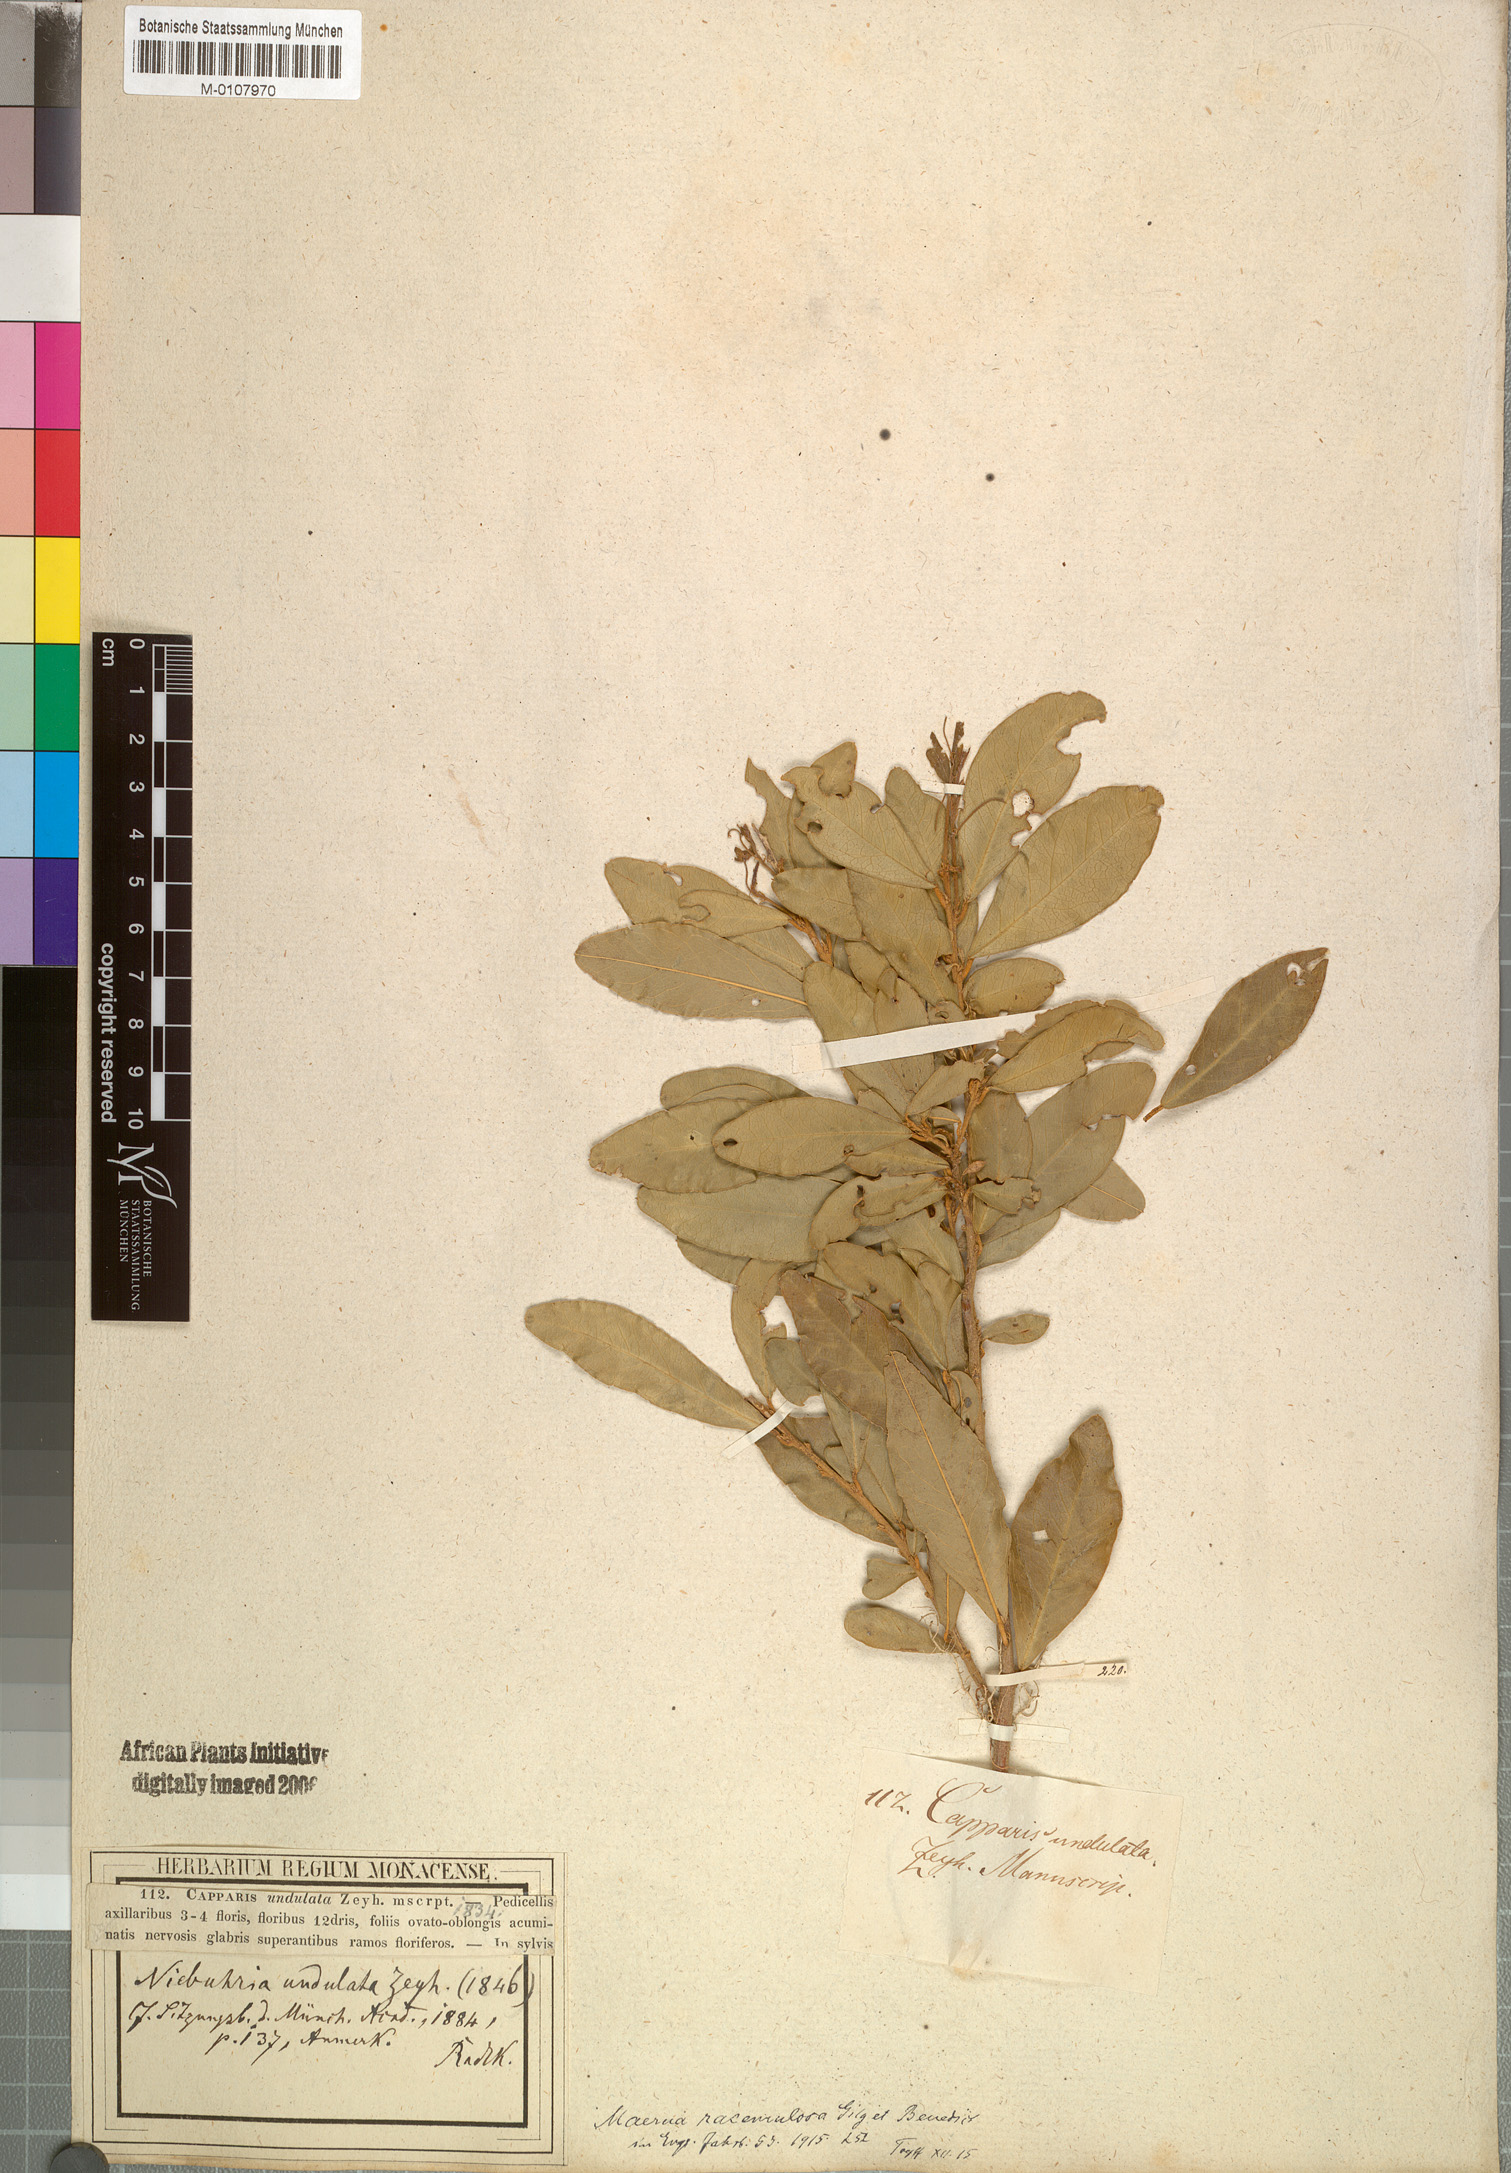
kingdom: Plantae
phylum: Tracheophyta
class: Magnoliopsida
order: Brassicales
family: Capparaceae
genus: Maerua
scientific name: Maerua racemulosa
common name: Forest bush-cherry
